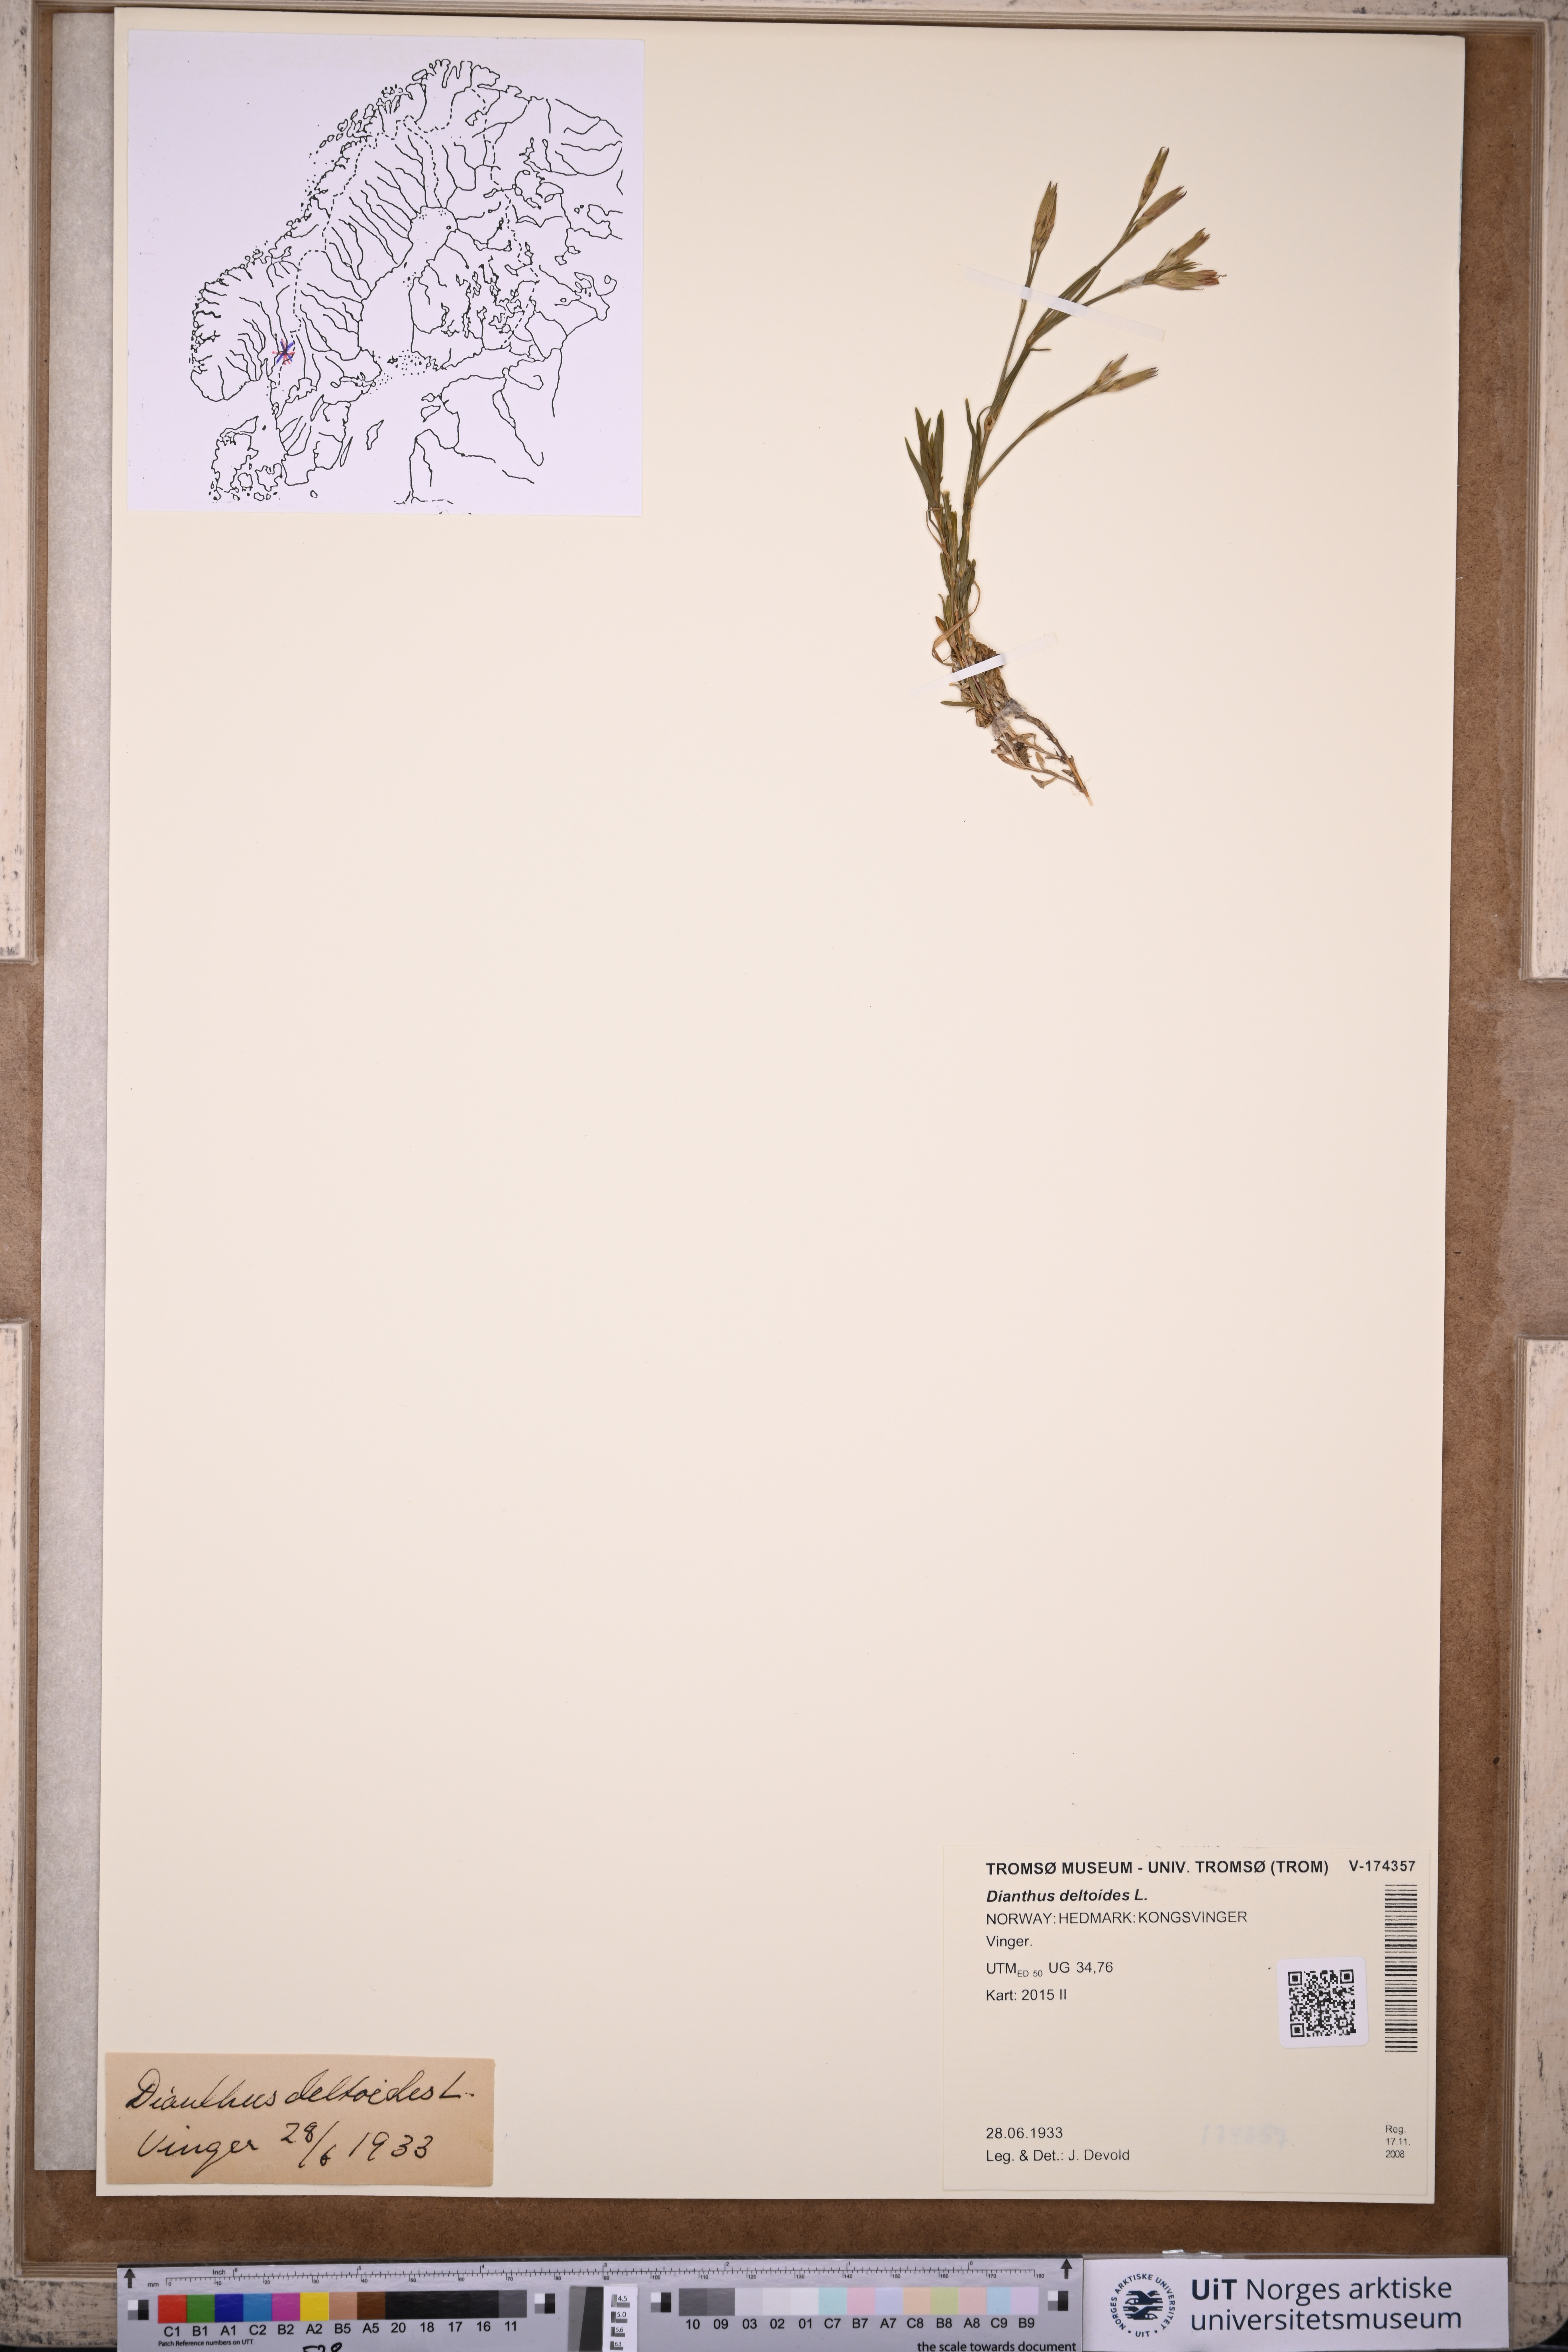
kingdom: Plantae
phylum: Tracheophyta
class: Magnoliopsida
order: Caryophyllales
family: Caryophyllaceae
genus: Dianthus
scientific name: Dianthus deltoides
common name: Maiden pink
